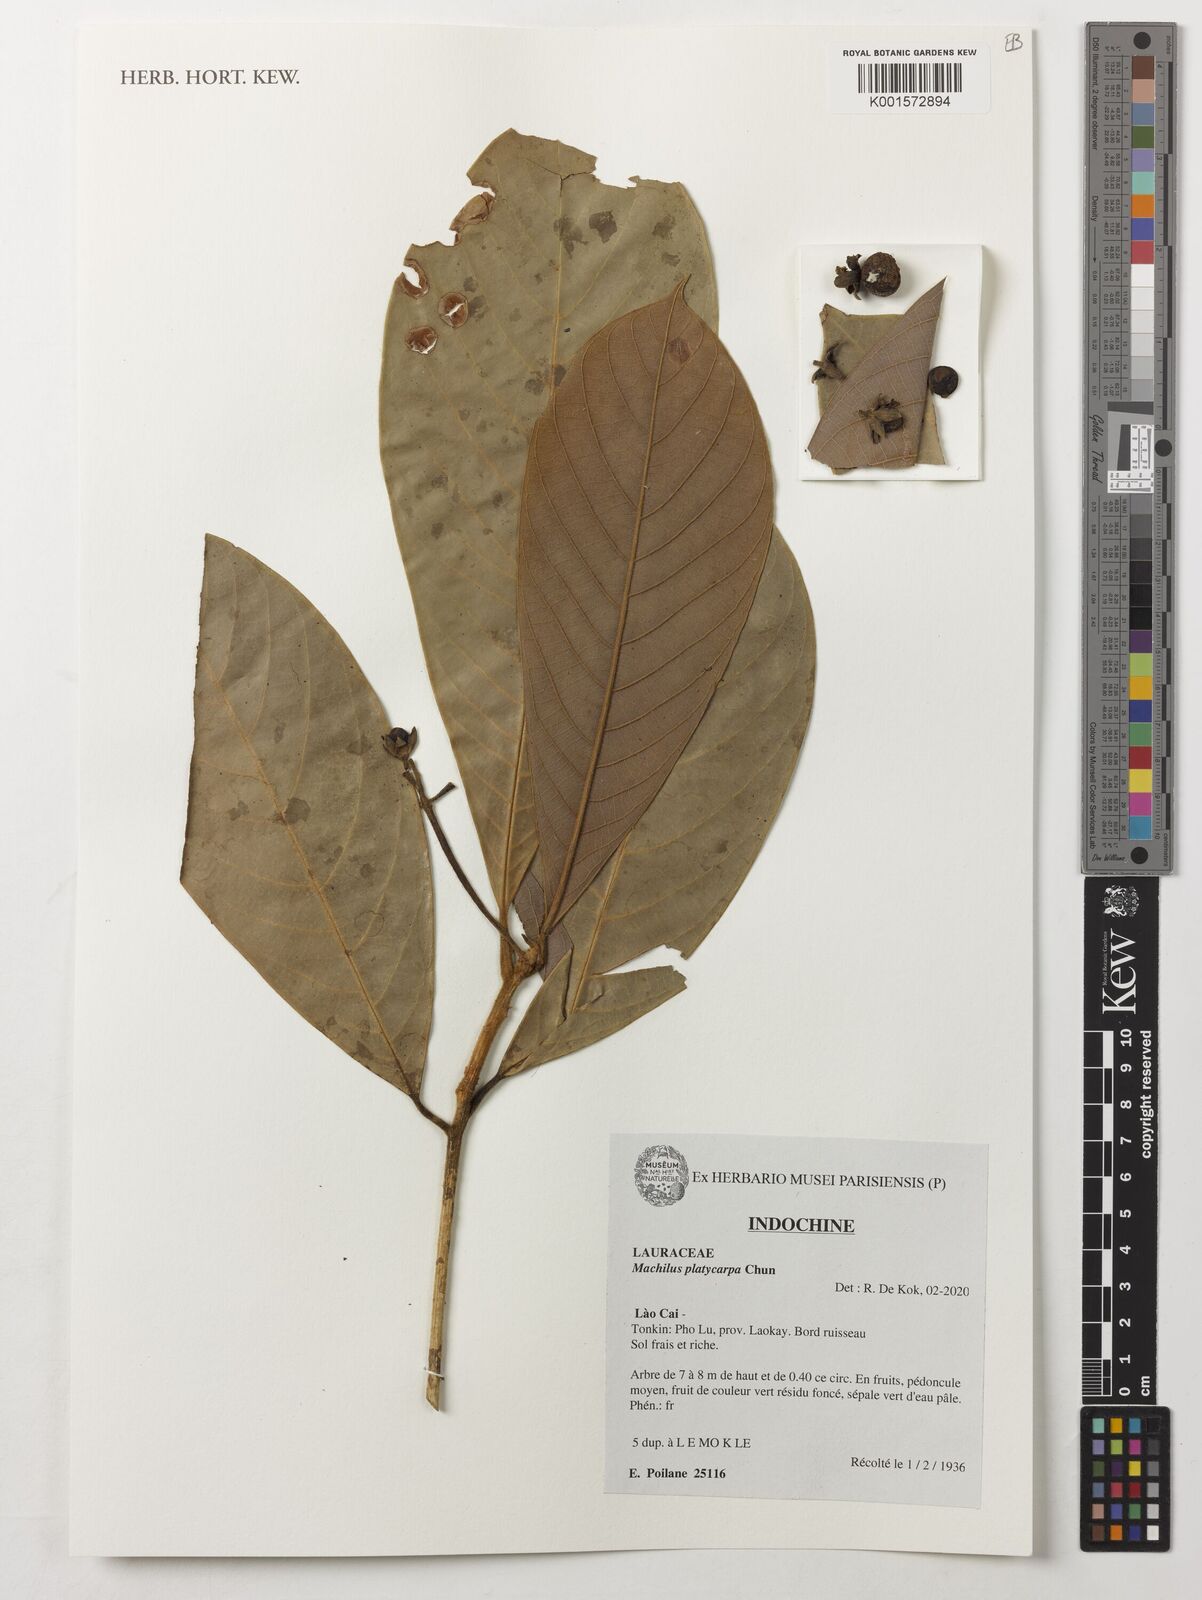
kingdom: Plantae
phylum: Tracheophyta
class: Magnoliopsida
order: Laurales
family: Lauraceae
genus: Machilus
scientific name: Machilus platycarpa
